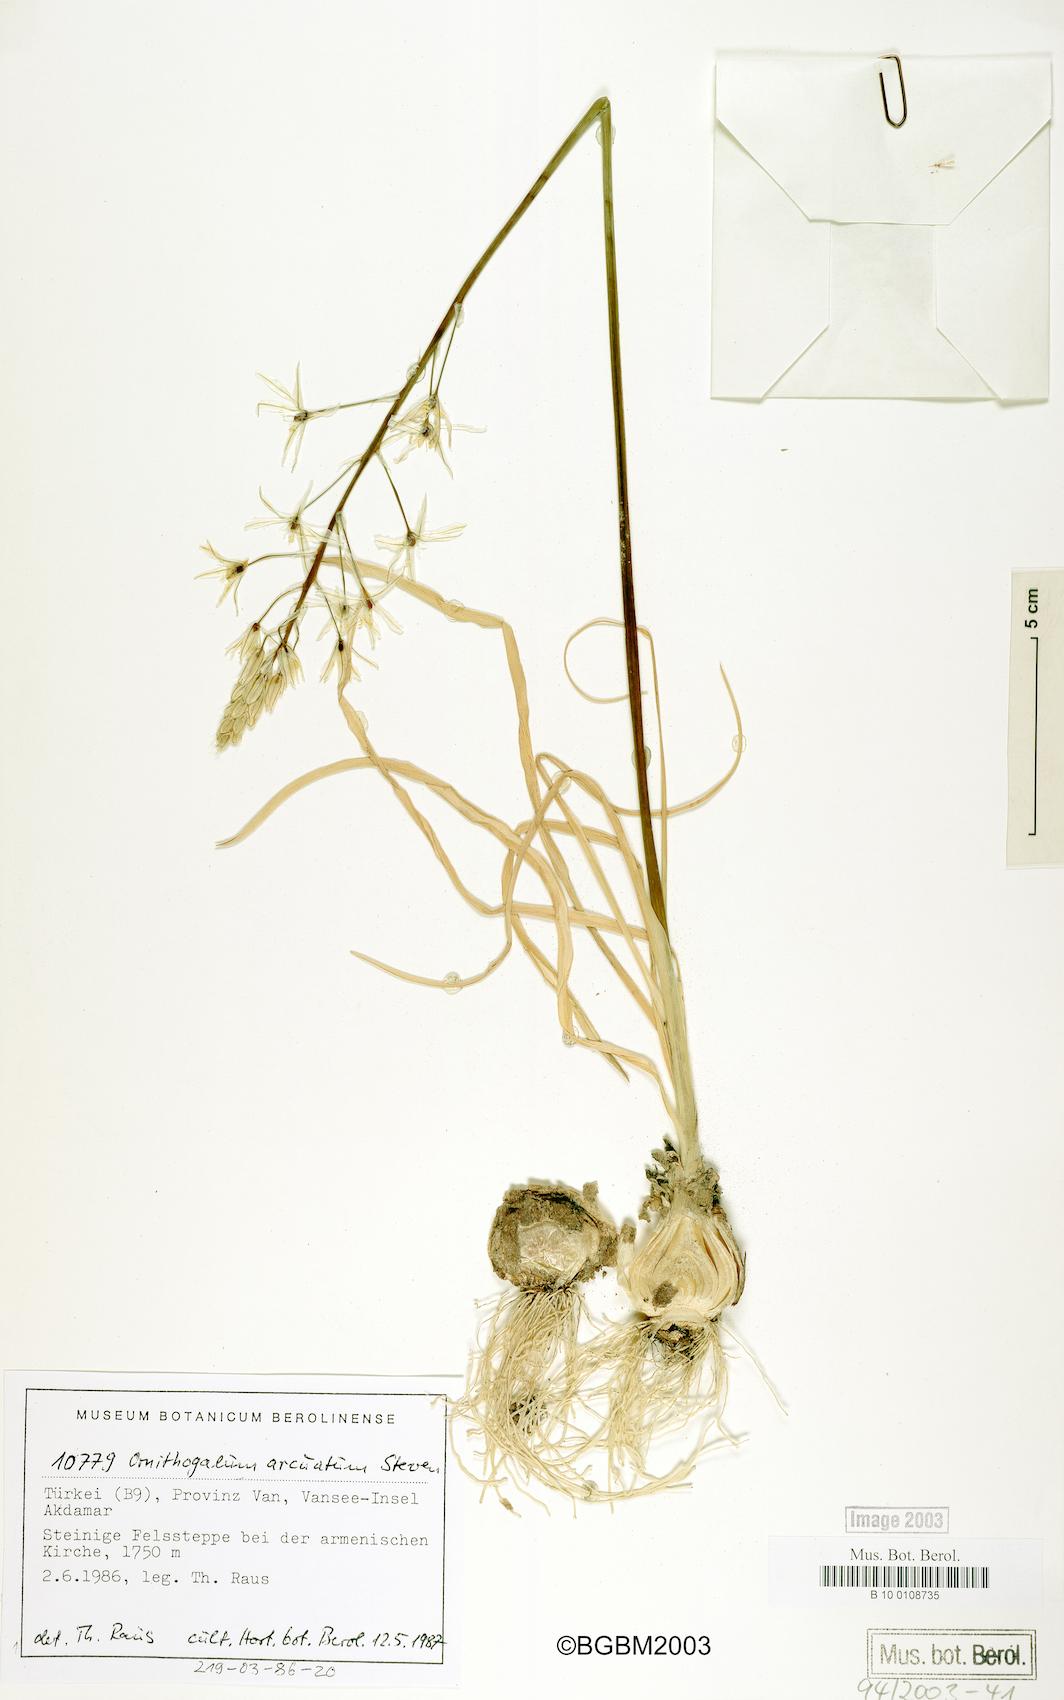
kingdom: Plantae
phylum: Tracheophyta
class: Liliopsida
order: Asparagales
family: Asparagaceae
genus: Ornithogalum
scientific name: Ornithogalum arcuatum
